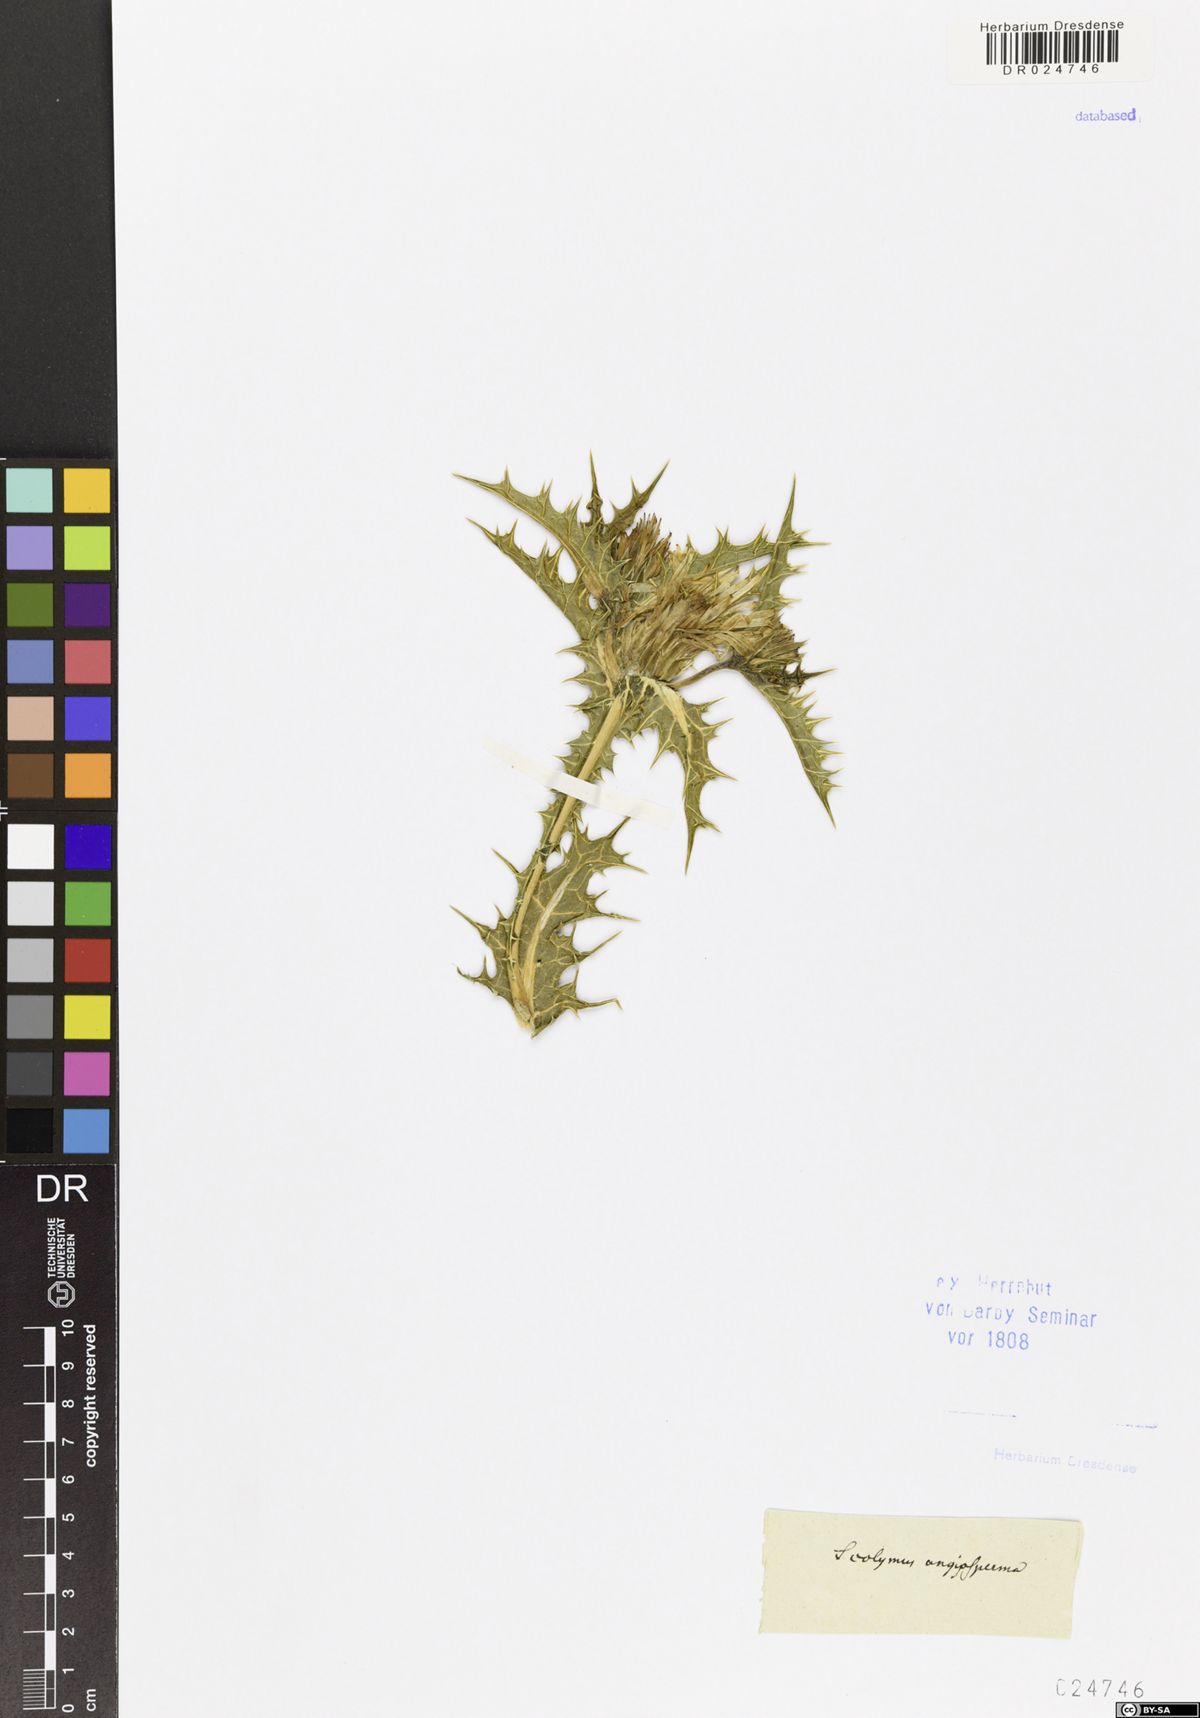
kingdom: Plantae
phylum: Tracheophyta
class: Magnoliopsida
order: Asterales
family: Asteraceae
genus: Scolymus
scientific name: Scolymus maculatus
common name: Spotted thistle
